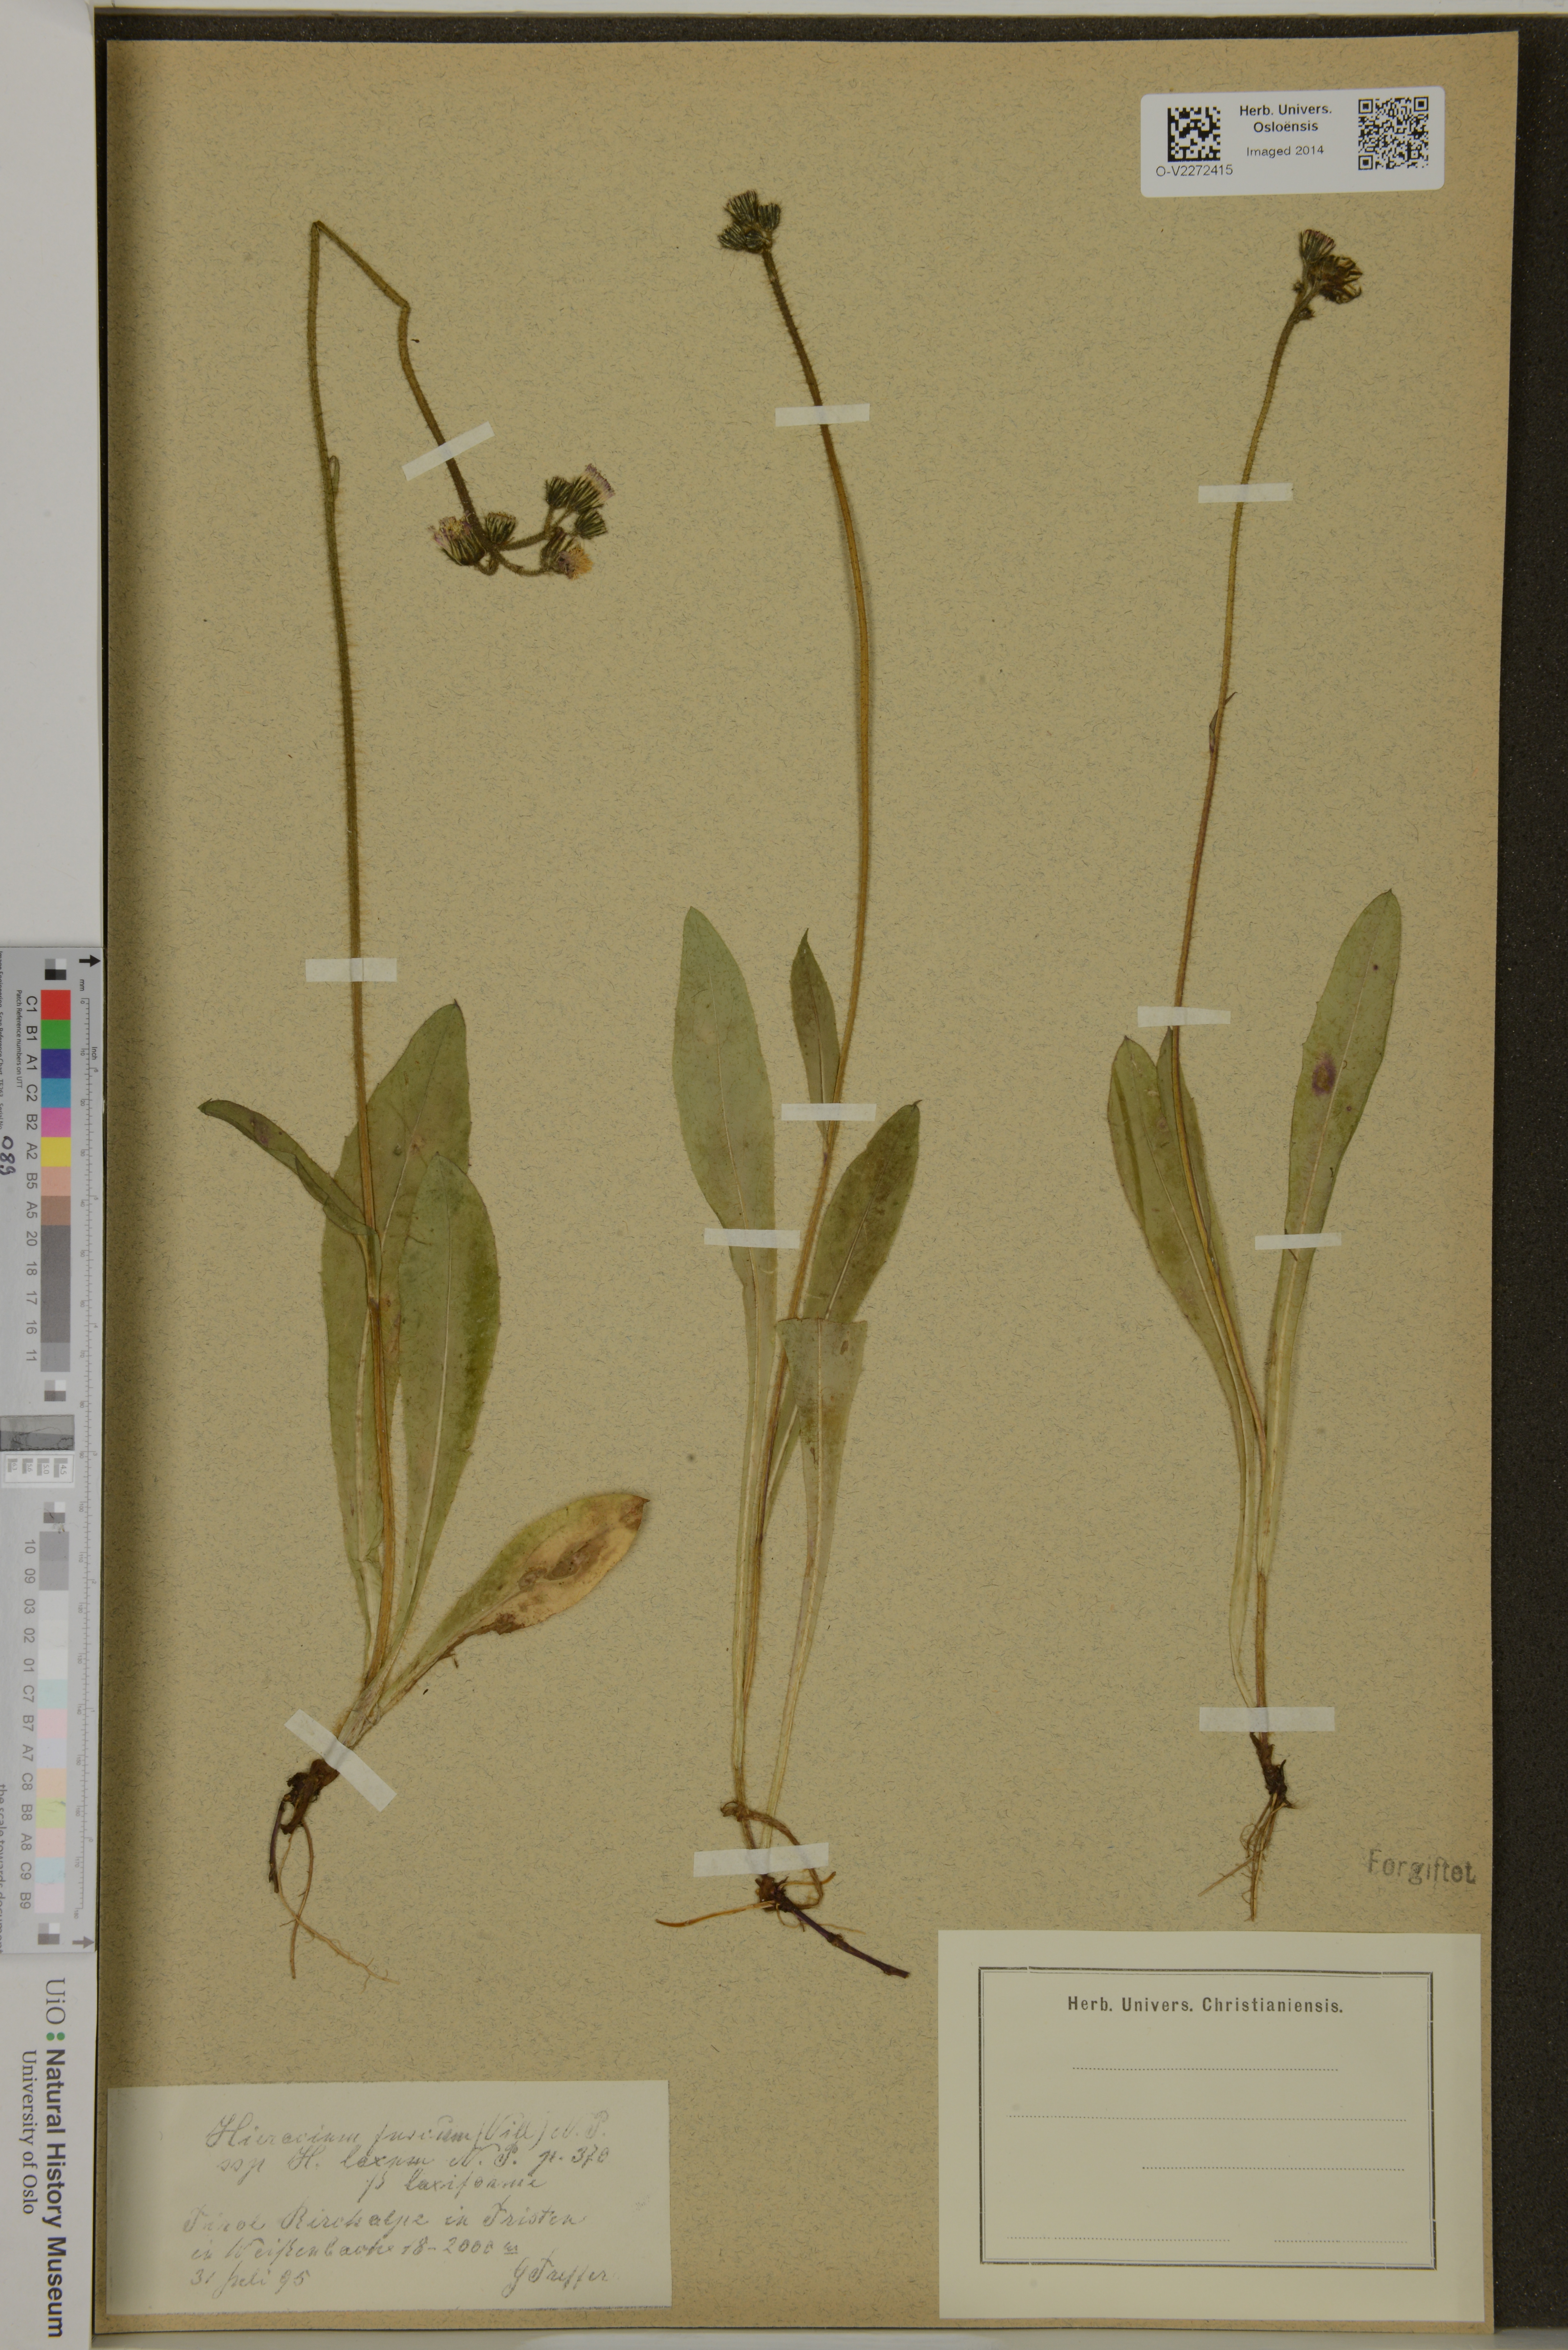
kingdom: Plantae
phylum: Tracheophyta
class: Magnoliopsida
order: Asterales
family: Asteraceae
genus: Pilosella
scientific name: Pilosella fusca
